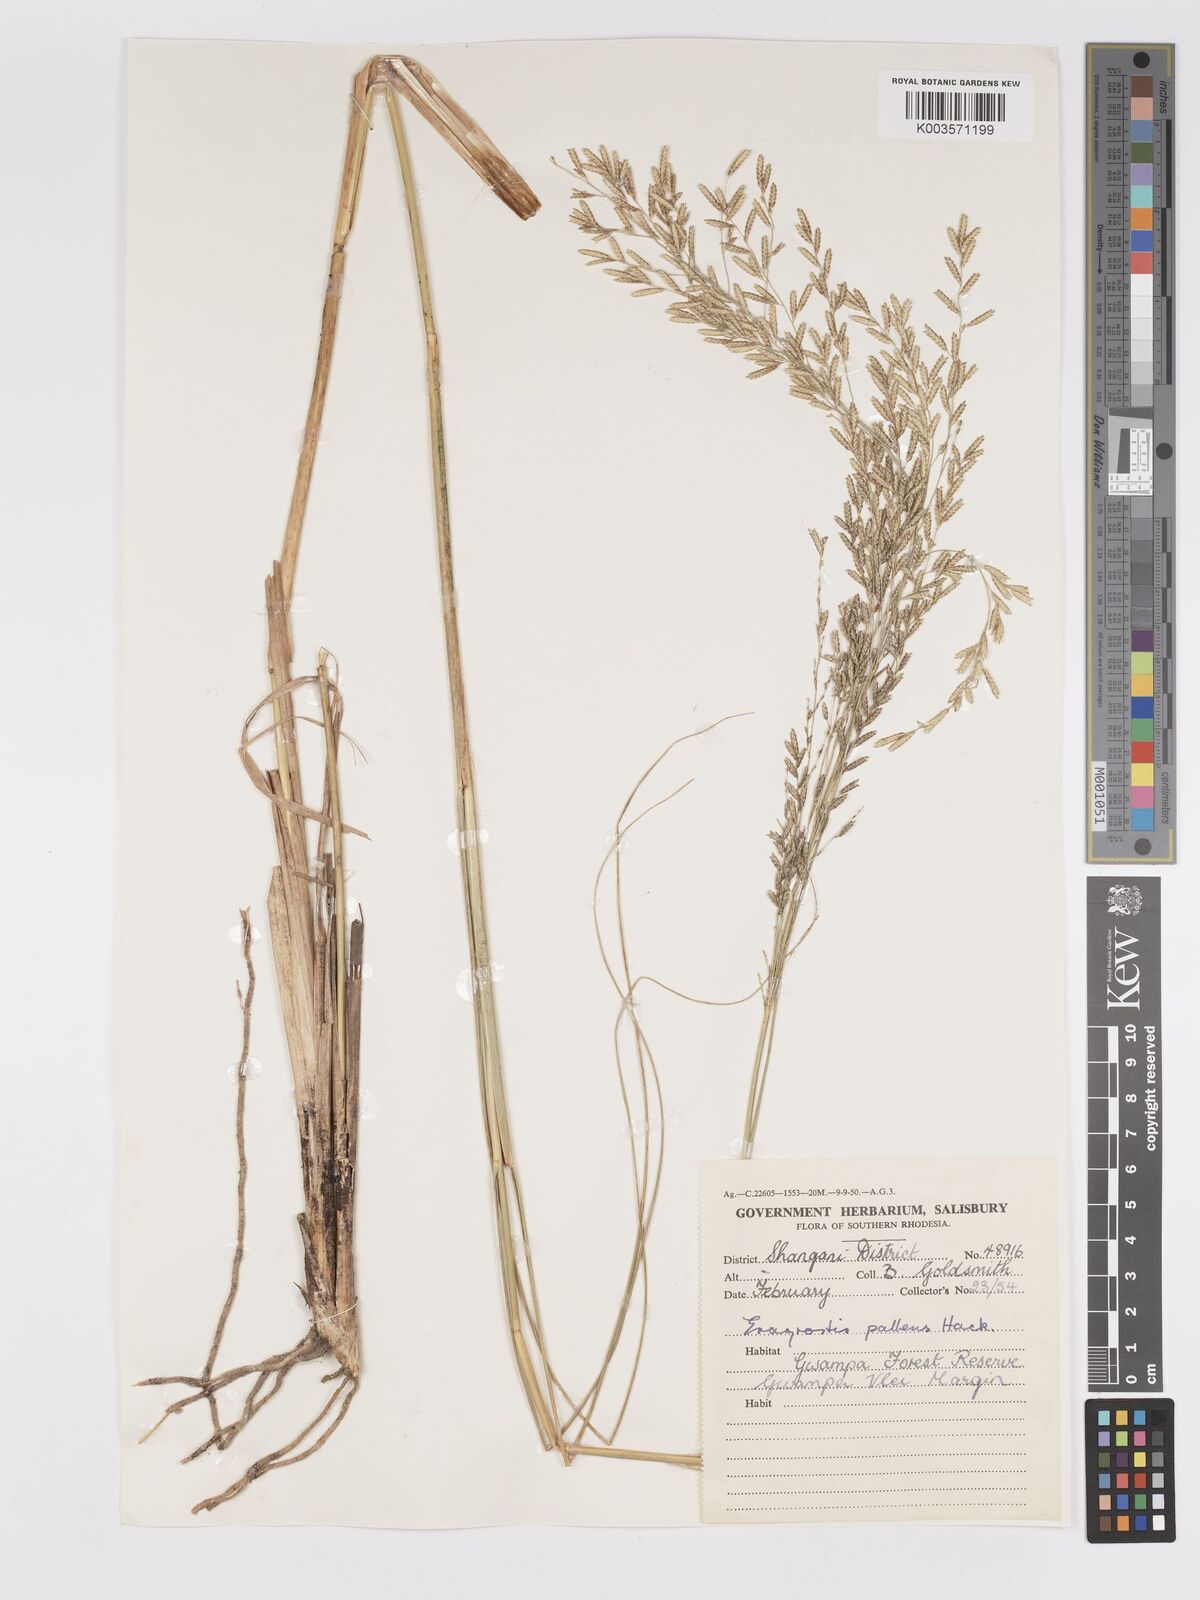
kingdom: Plantae
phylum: Tracheophyta
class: Liliopsida
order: Poales
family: Poaceae
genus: Eragrostis
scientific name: Eragrostis pallens
